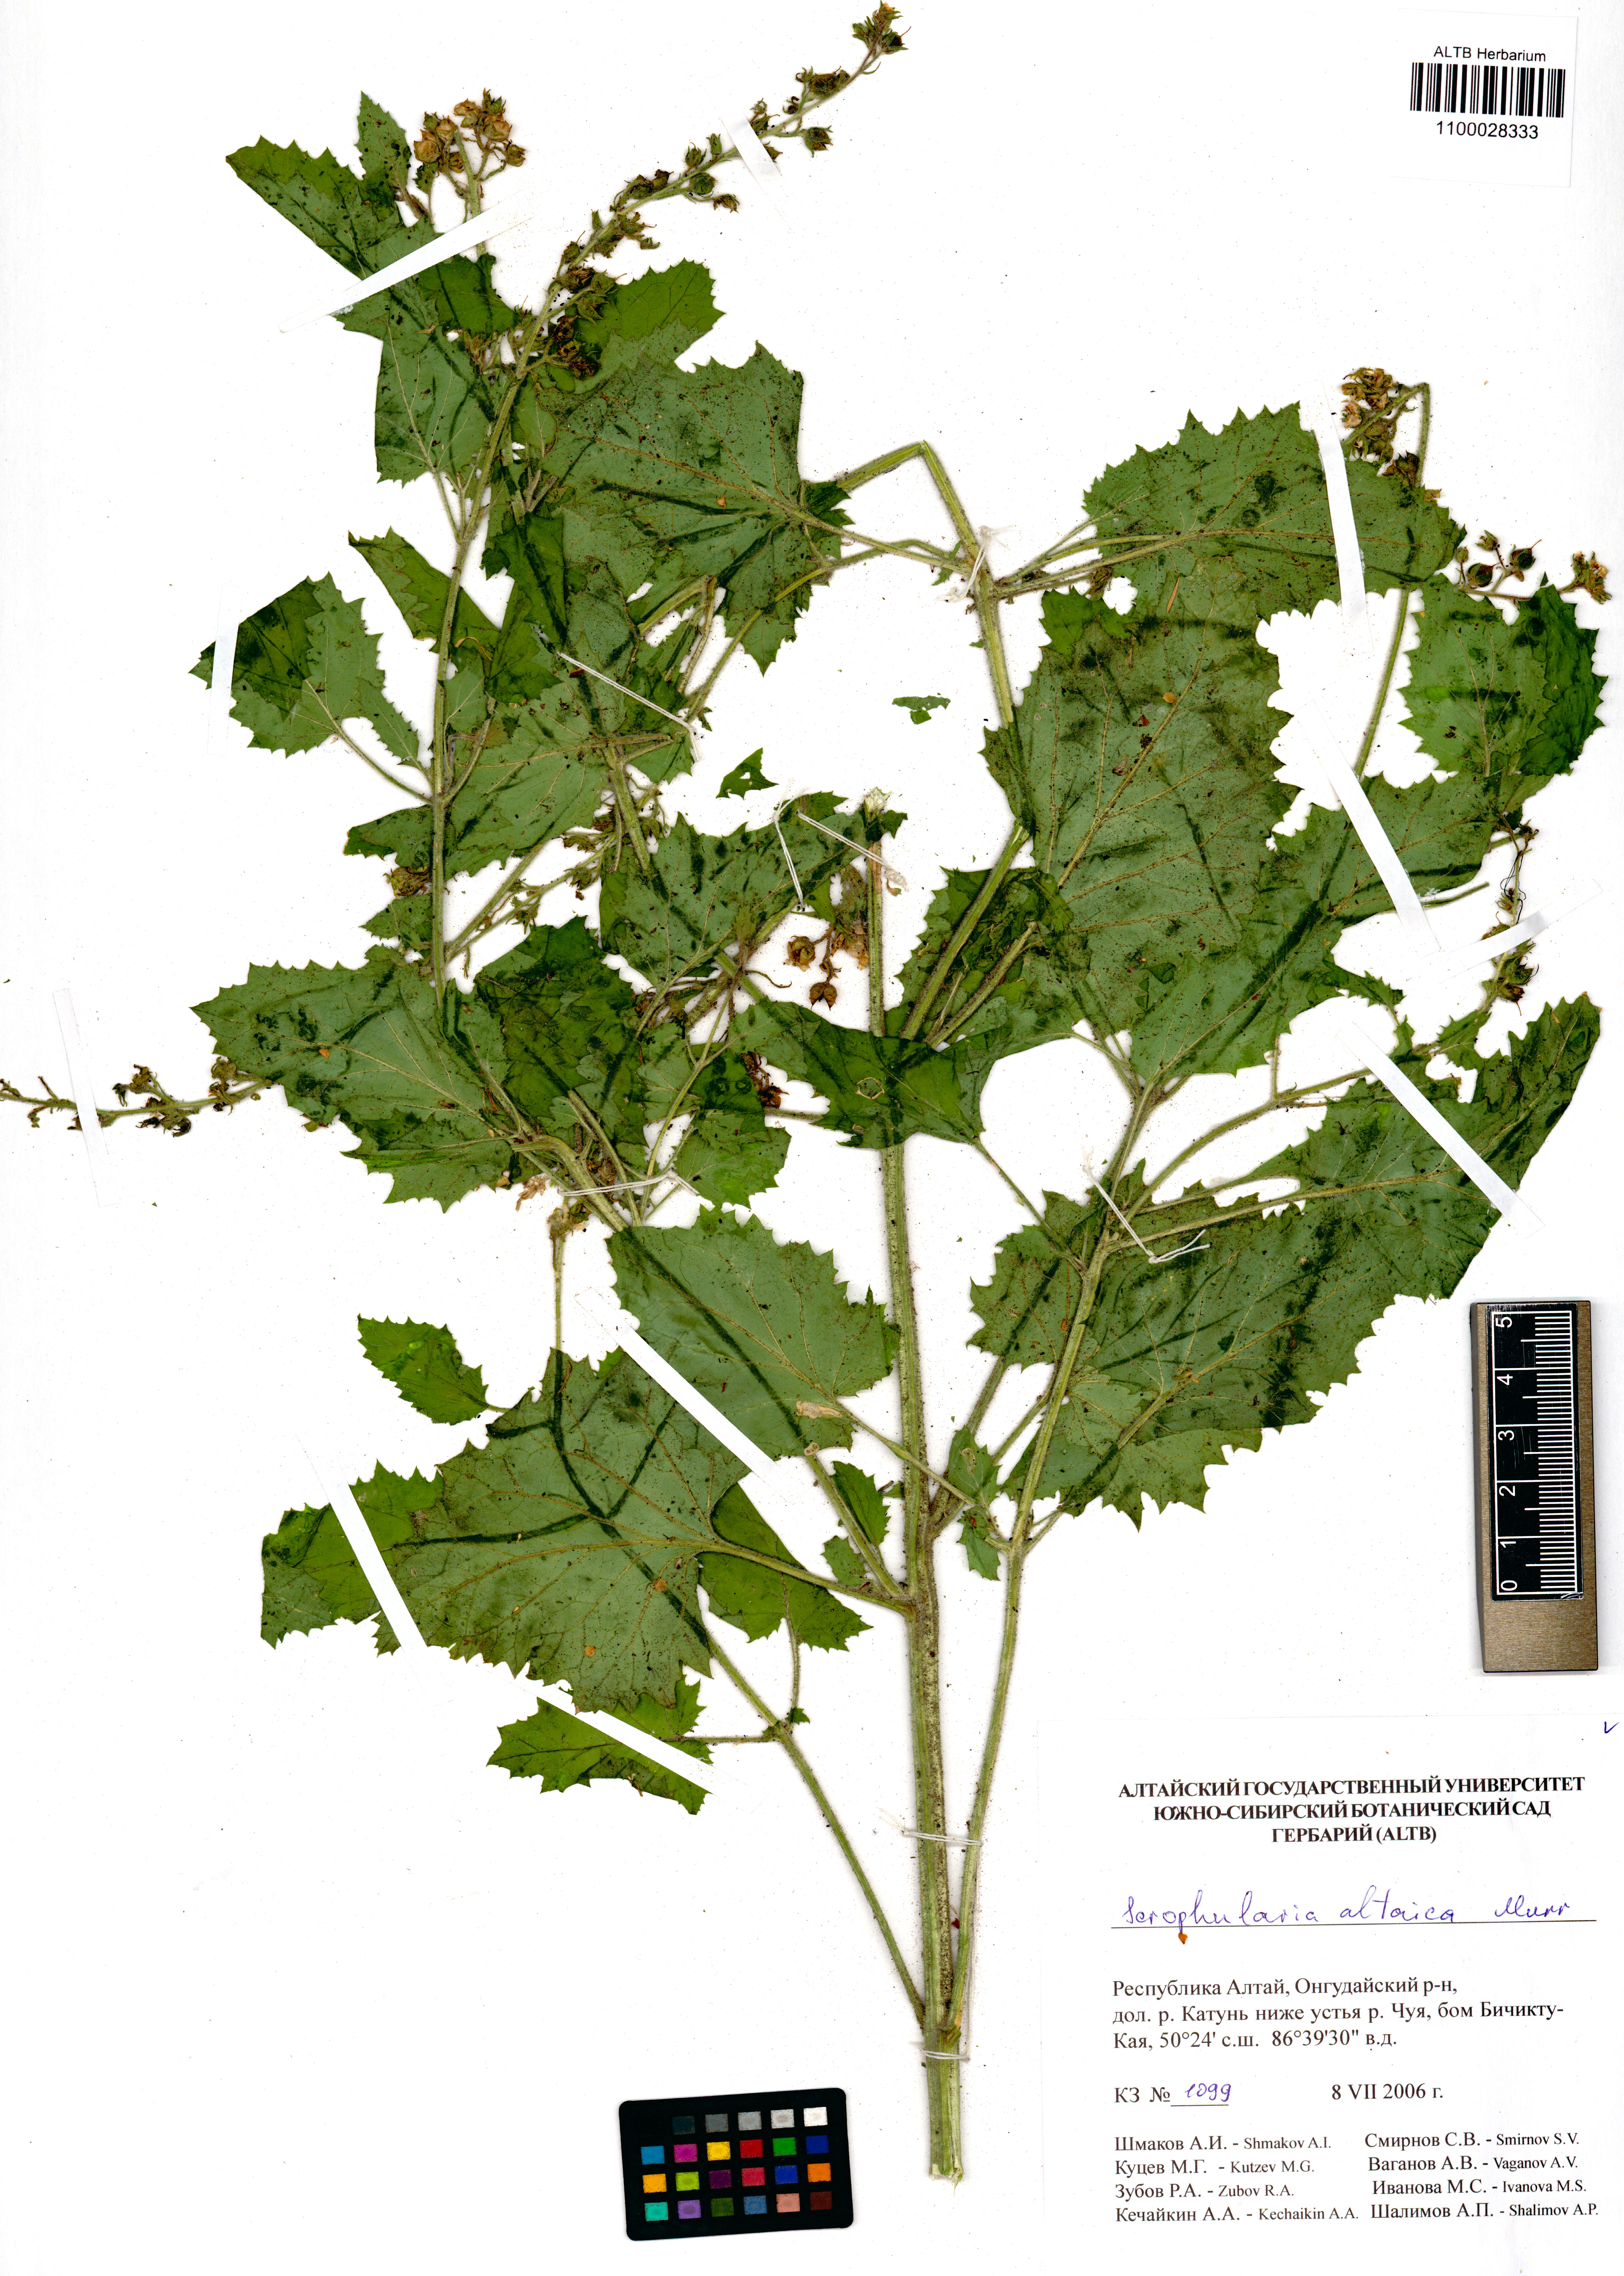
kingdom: Plantae
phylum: Tracheophyta
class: Magnoliopsida
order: Lamiales
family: Scrophulariaceae
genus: Scrophularia
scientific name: Scrophularia altaica
